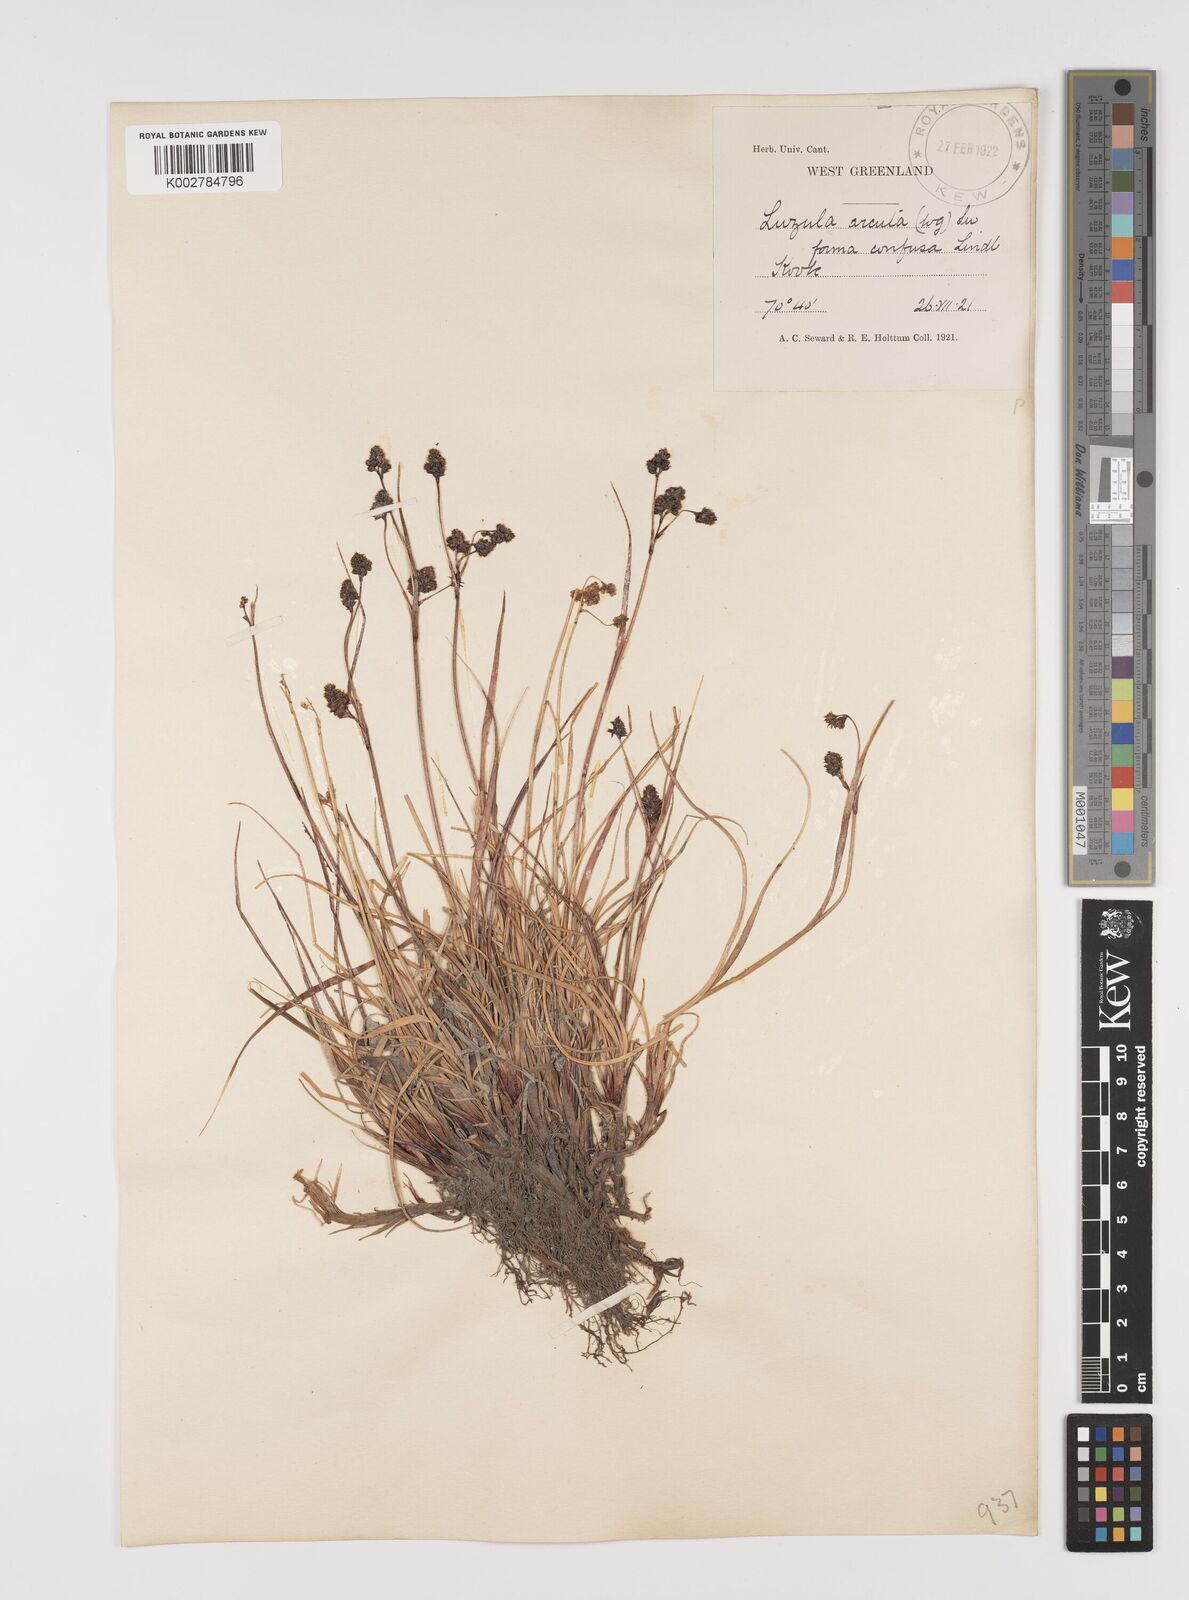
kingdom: Plantae
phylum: Tracheophyta
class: Liliopsida
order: Poales
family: Juncaceae
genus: Luzula
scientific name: Luzula confusa
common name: Northern wood rush
